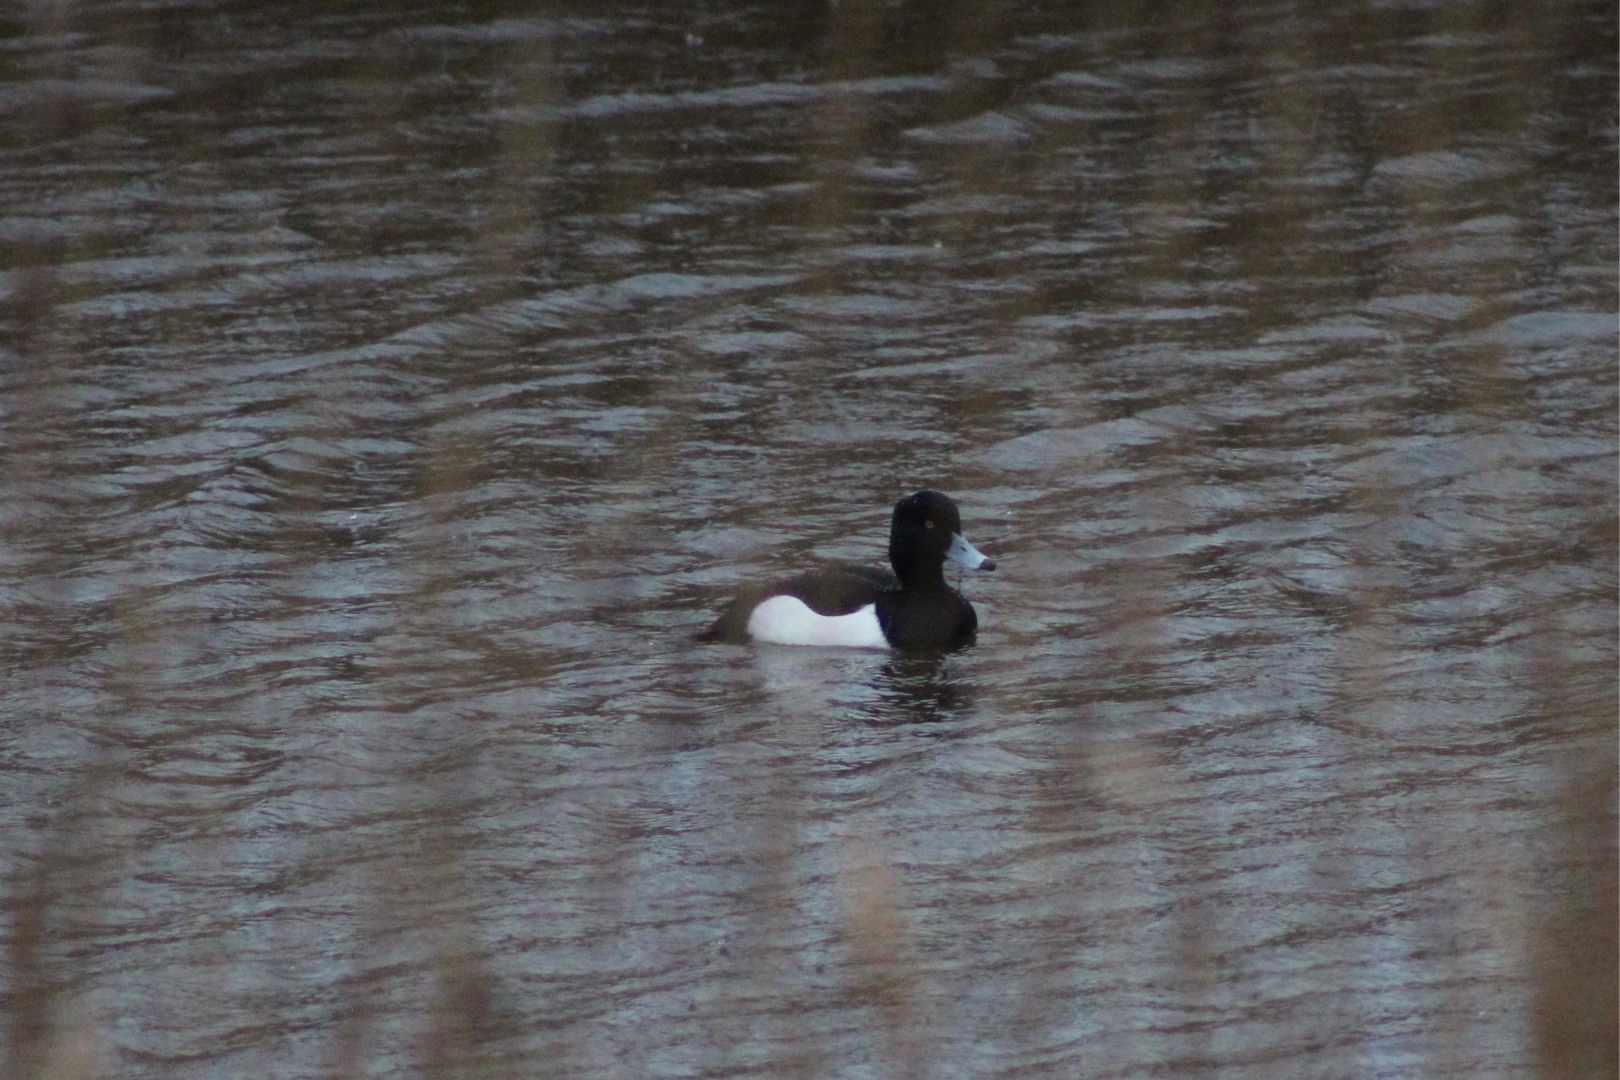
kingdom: Animalia
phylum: Chordata
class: Aves
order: Anseriformes
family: Anatidae
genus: Aythya
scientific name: Aythya fuligula
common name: Troldand
